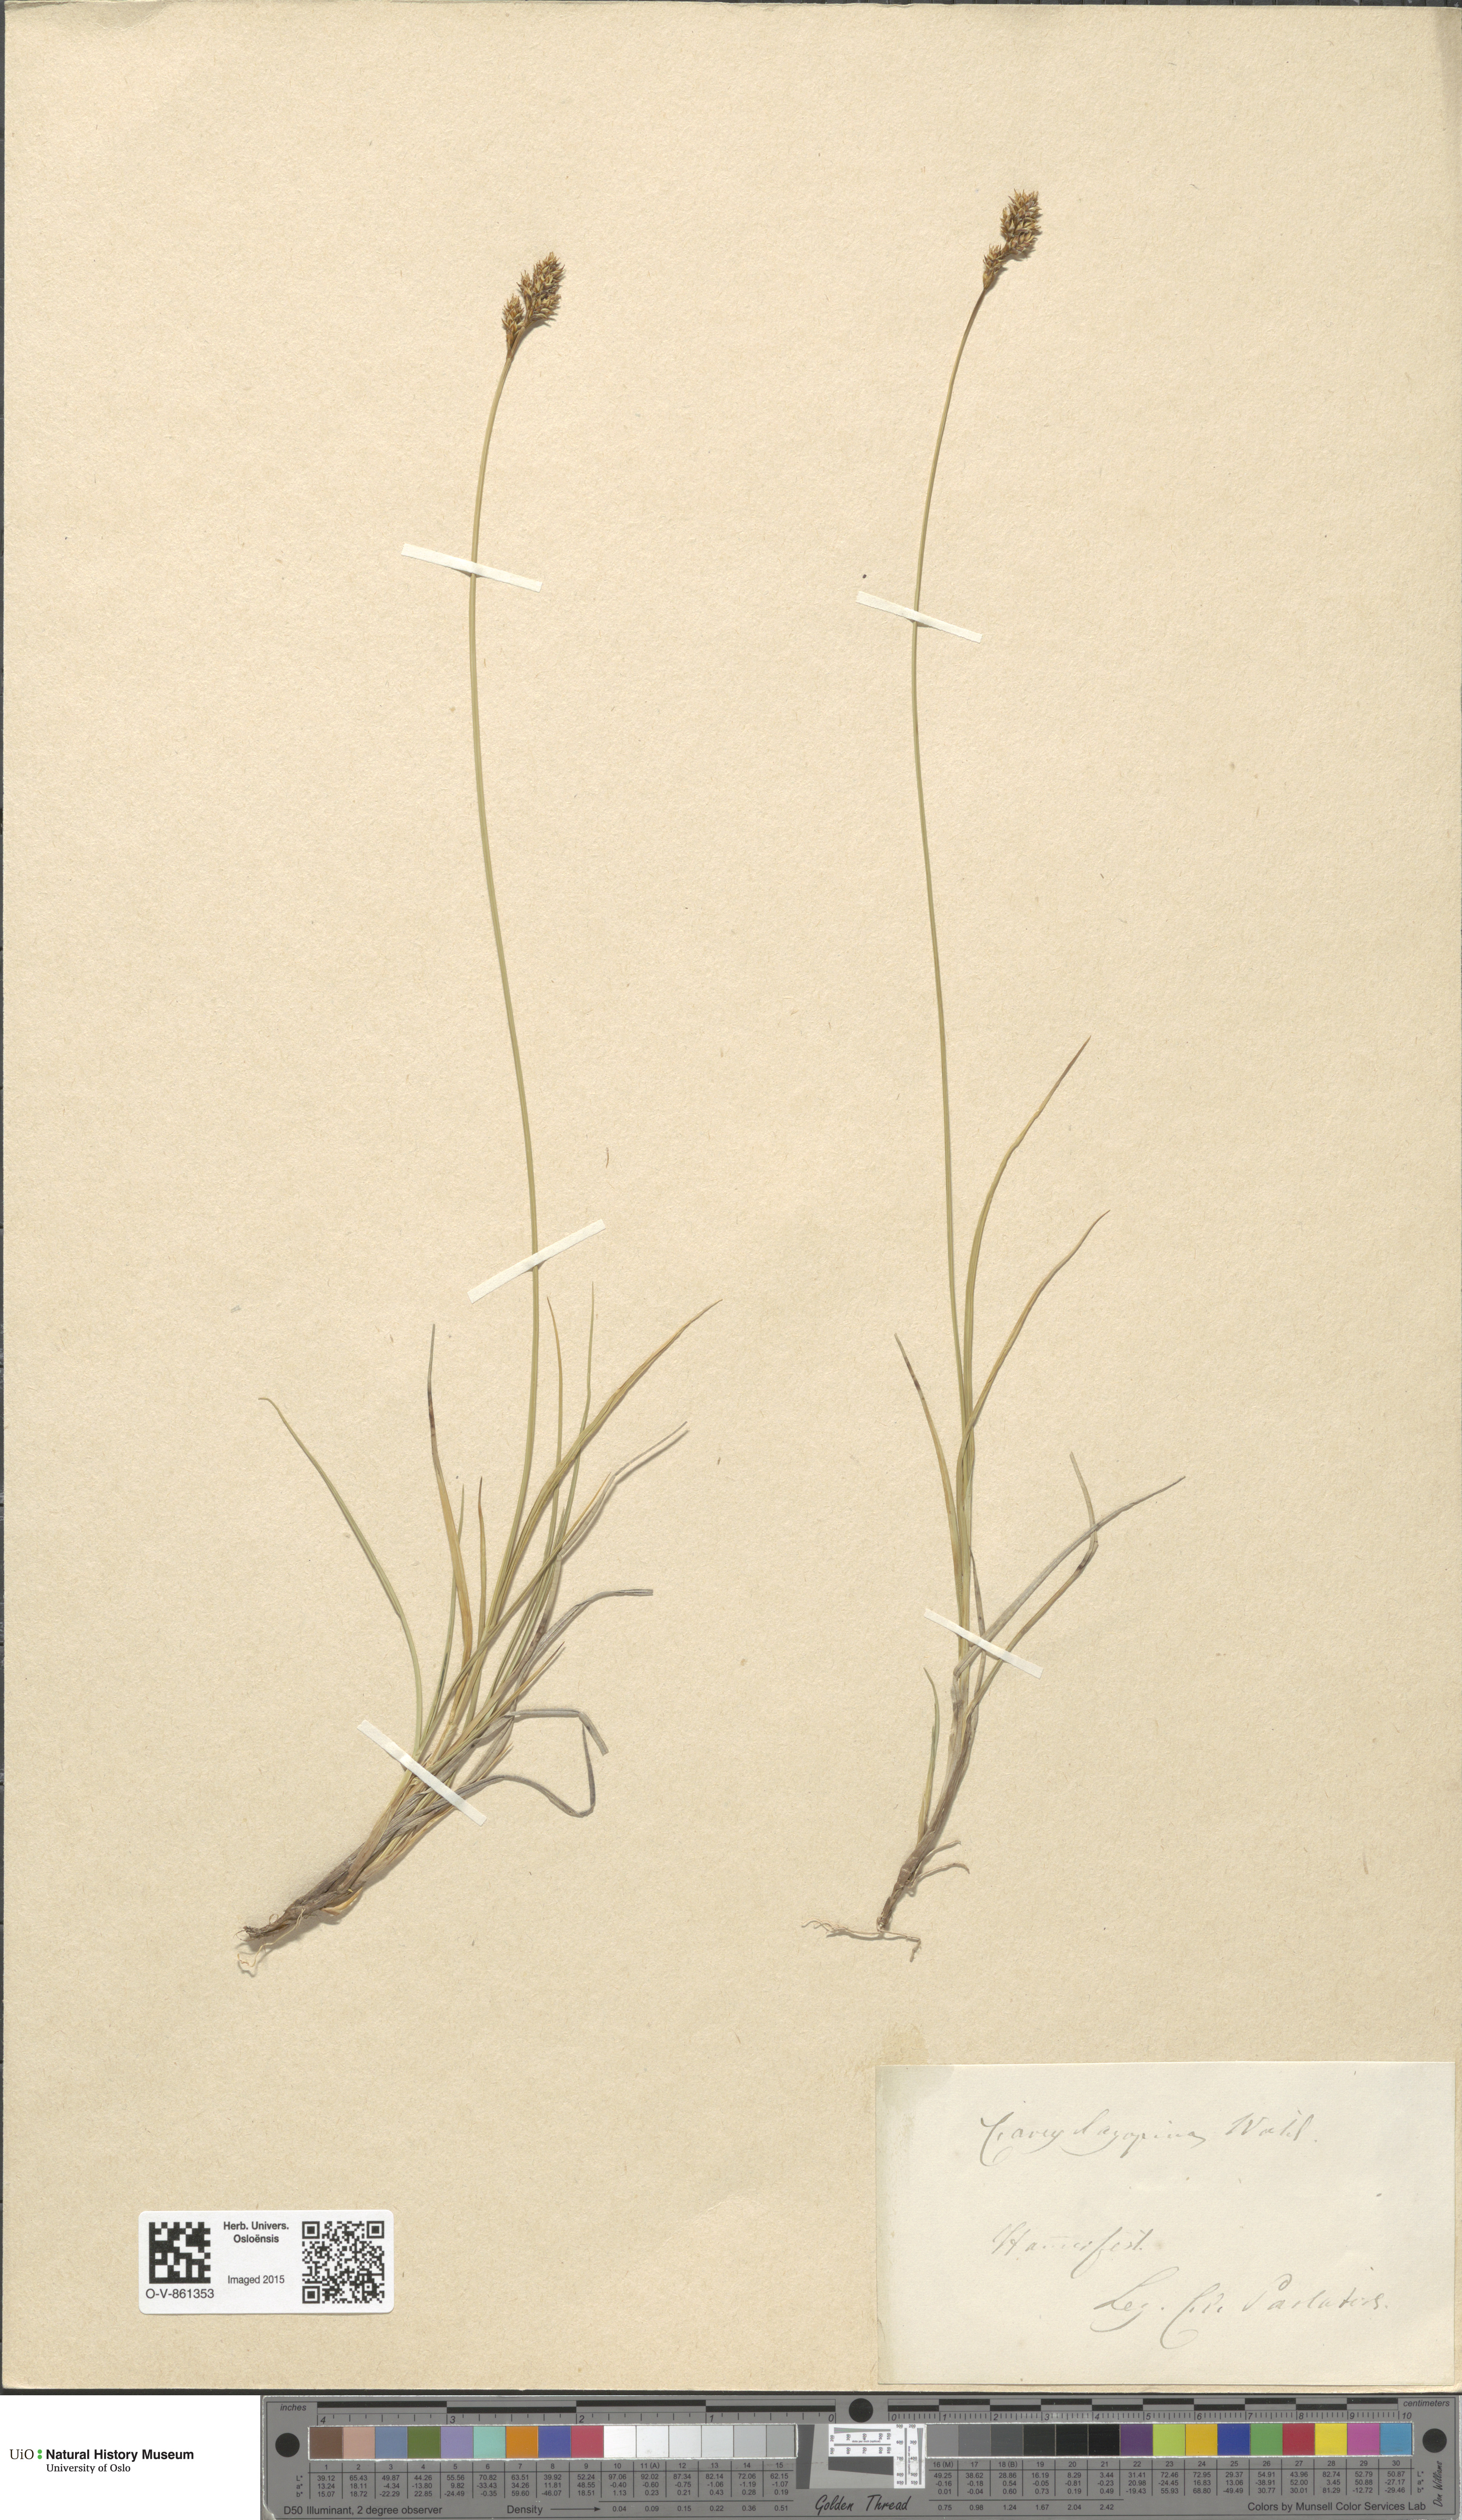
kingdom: Plantae
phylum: Tracheophyta
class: Liliopsida
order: Poales
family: Cyperaceae
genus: Carex
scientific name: Carex lachenalii
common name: Hare's-foot sedge
